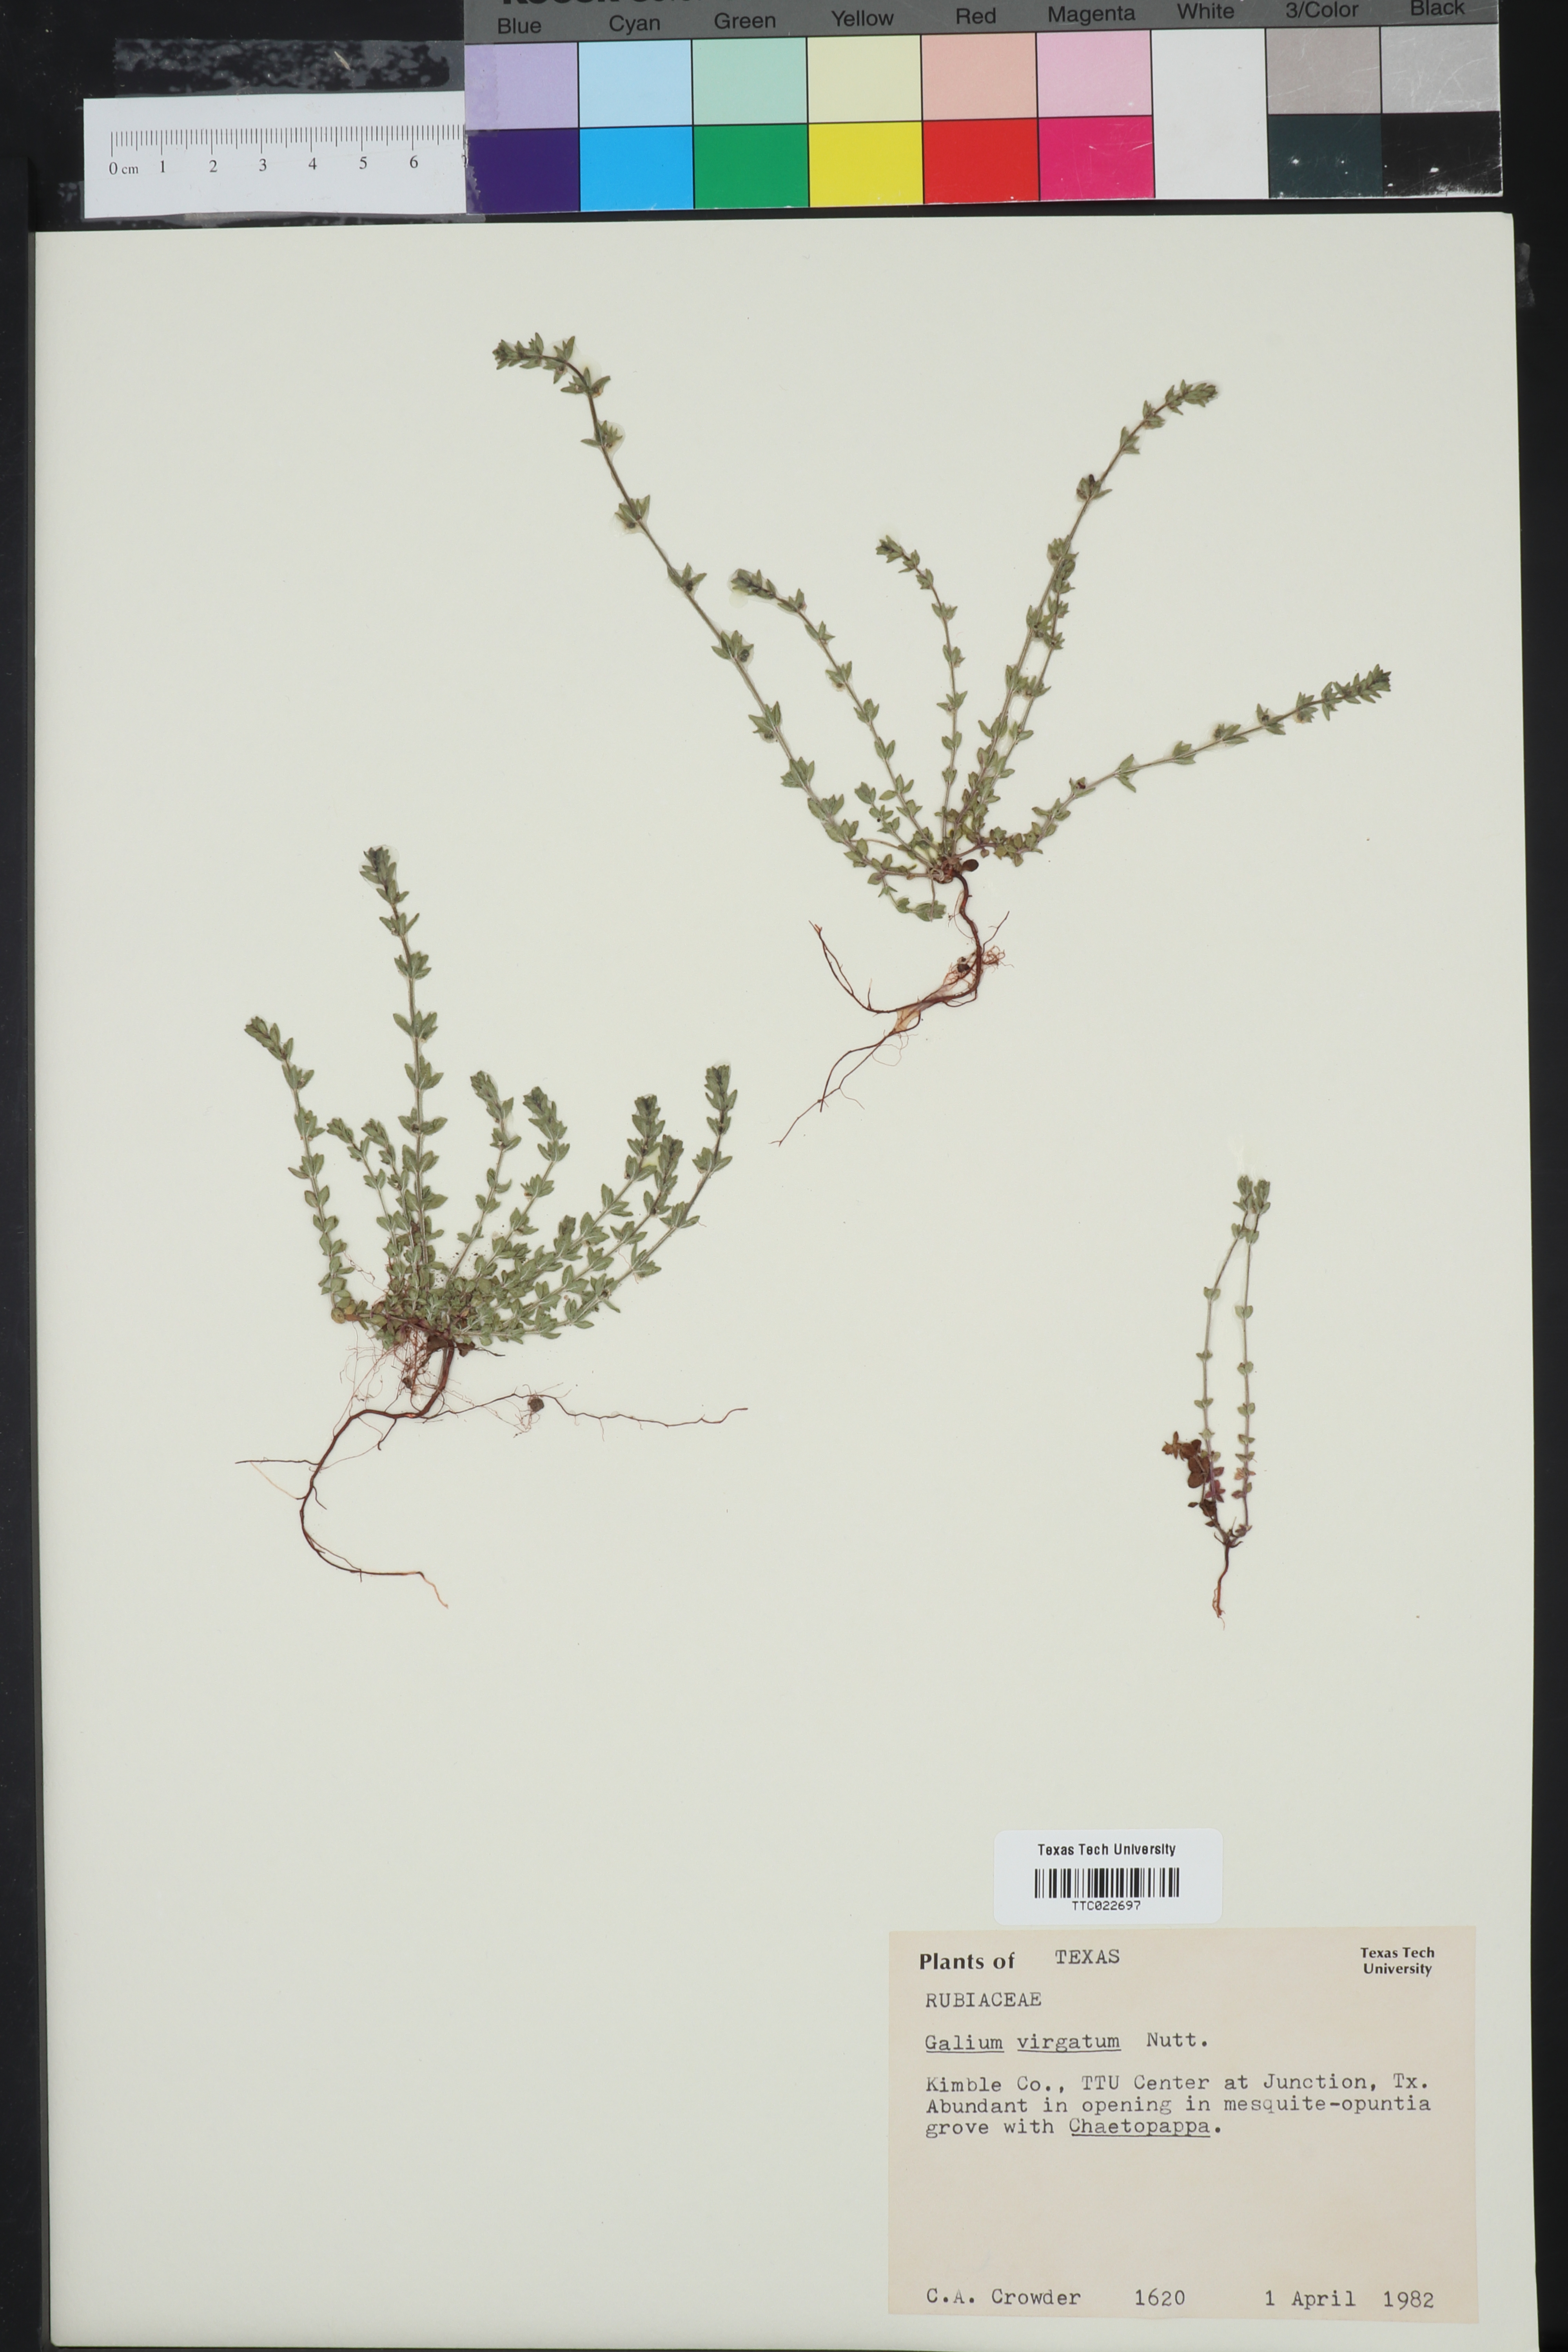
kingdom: Plantae
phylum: Tracheophyta
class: Magnoliopsida
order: Gentianales
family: Rubiaceae
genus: Galium
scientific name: Galium virgatum
